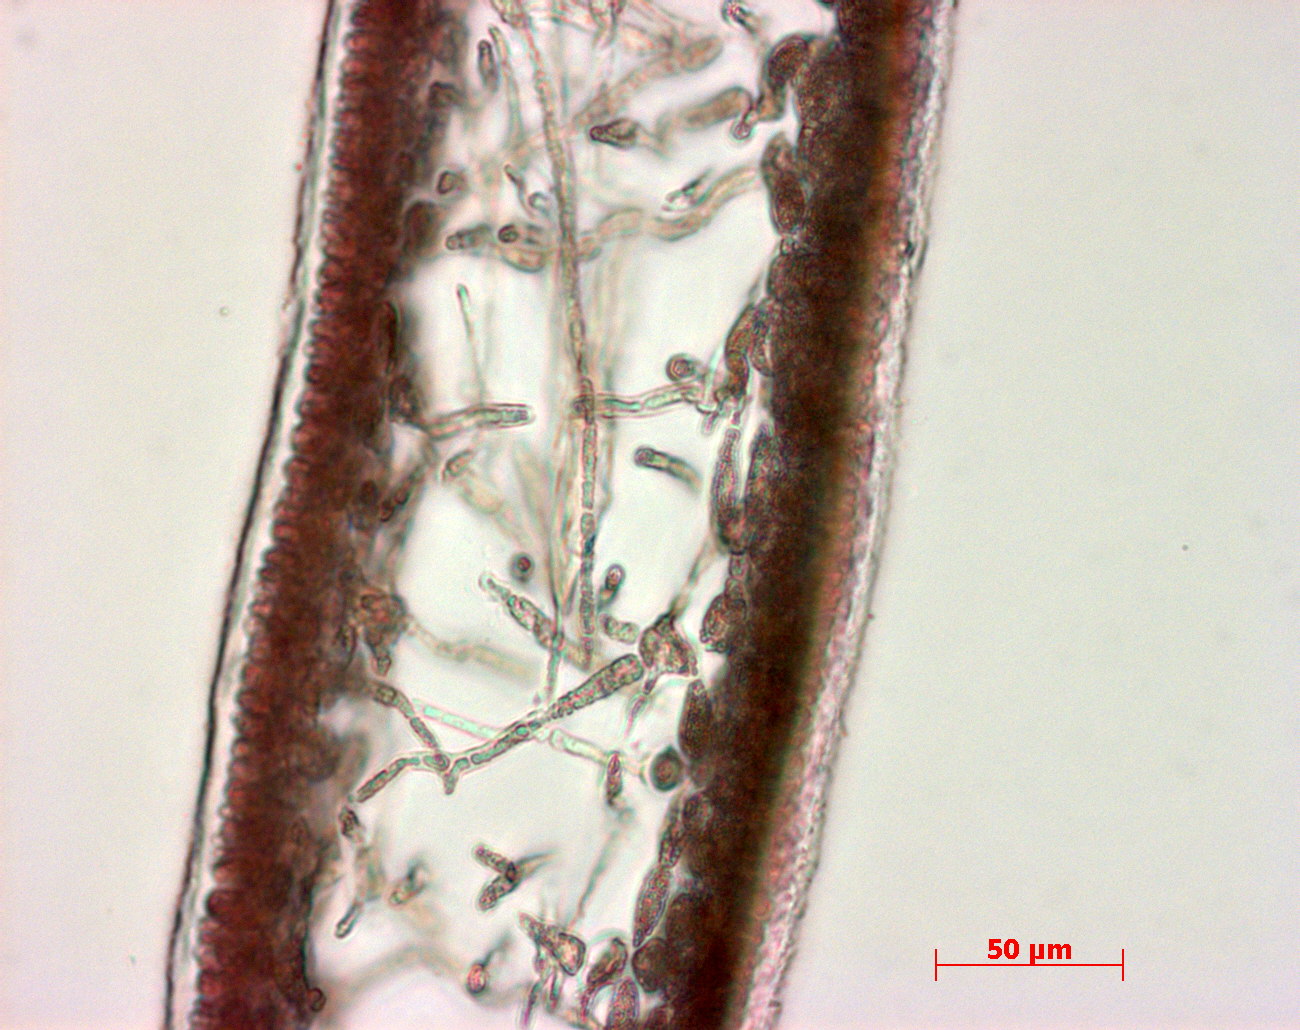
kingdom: Plantae
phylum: Rhodophyta
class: Florideophyceae
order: Halymeniales
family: Halymeniaceae
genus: Cryptonemia
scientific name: Cryptonemia latissima
